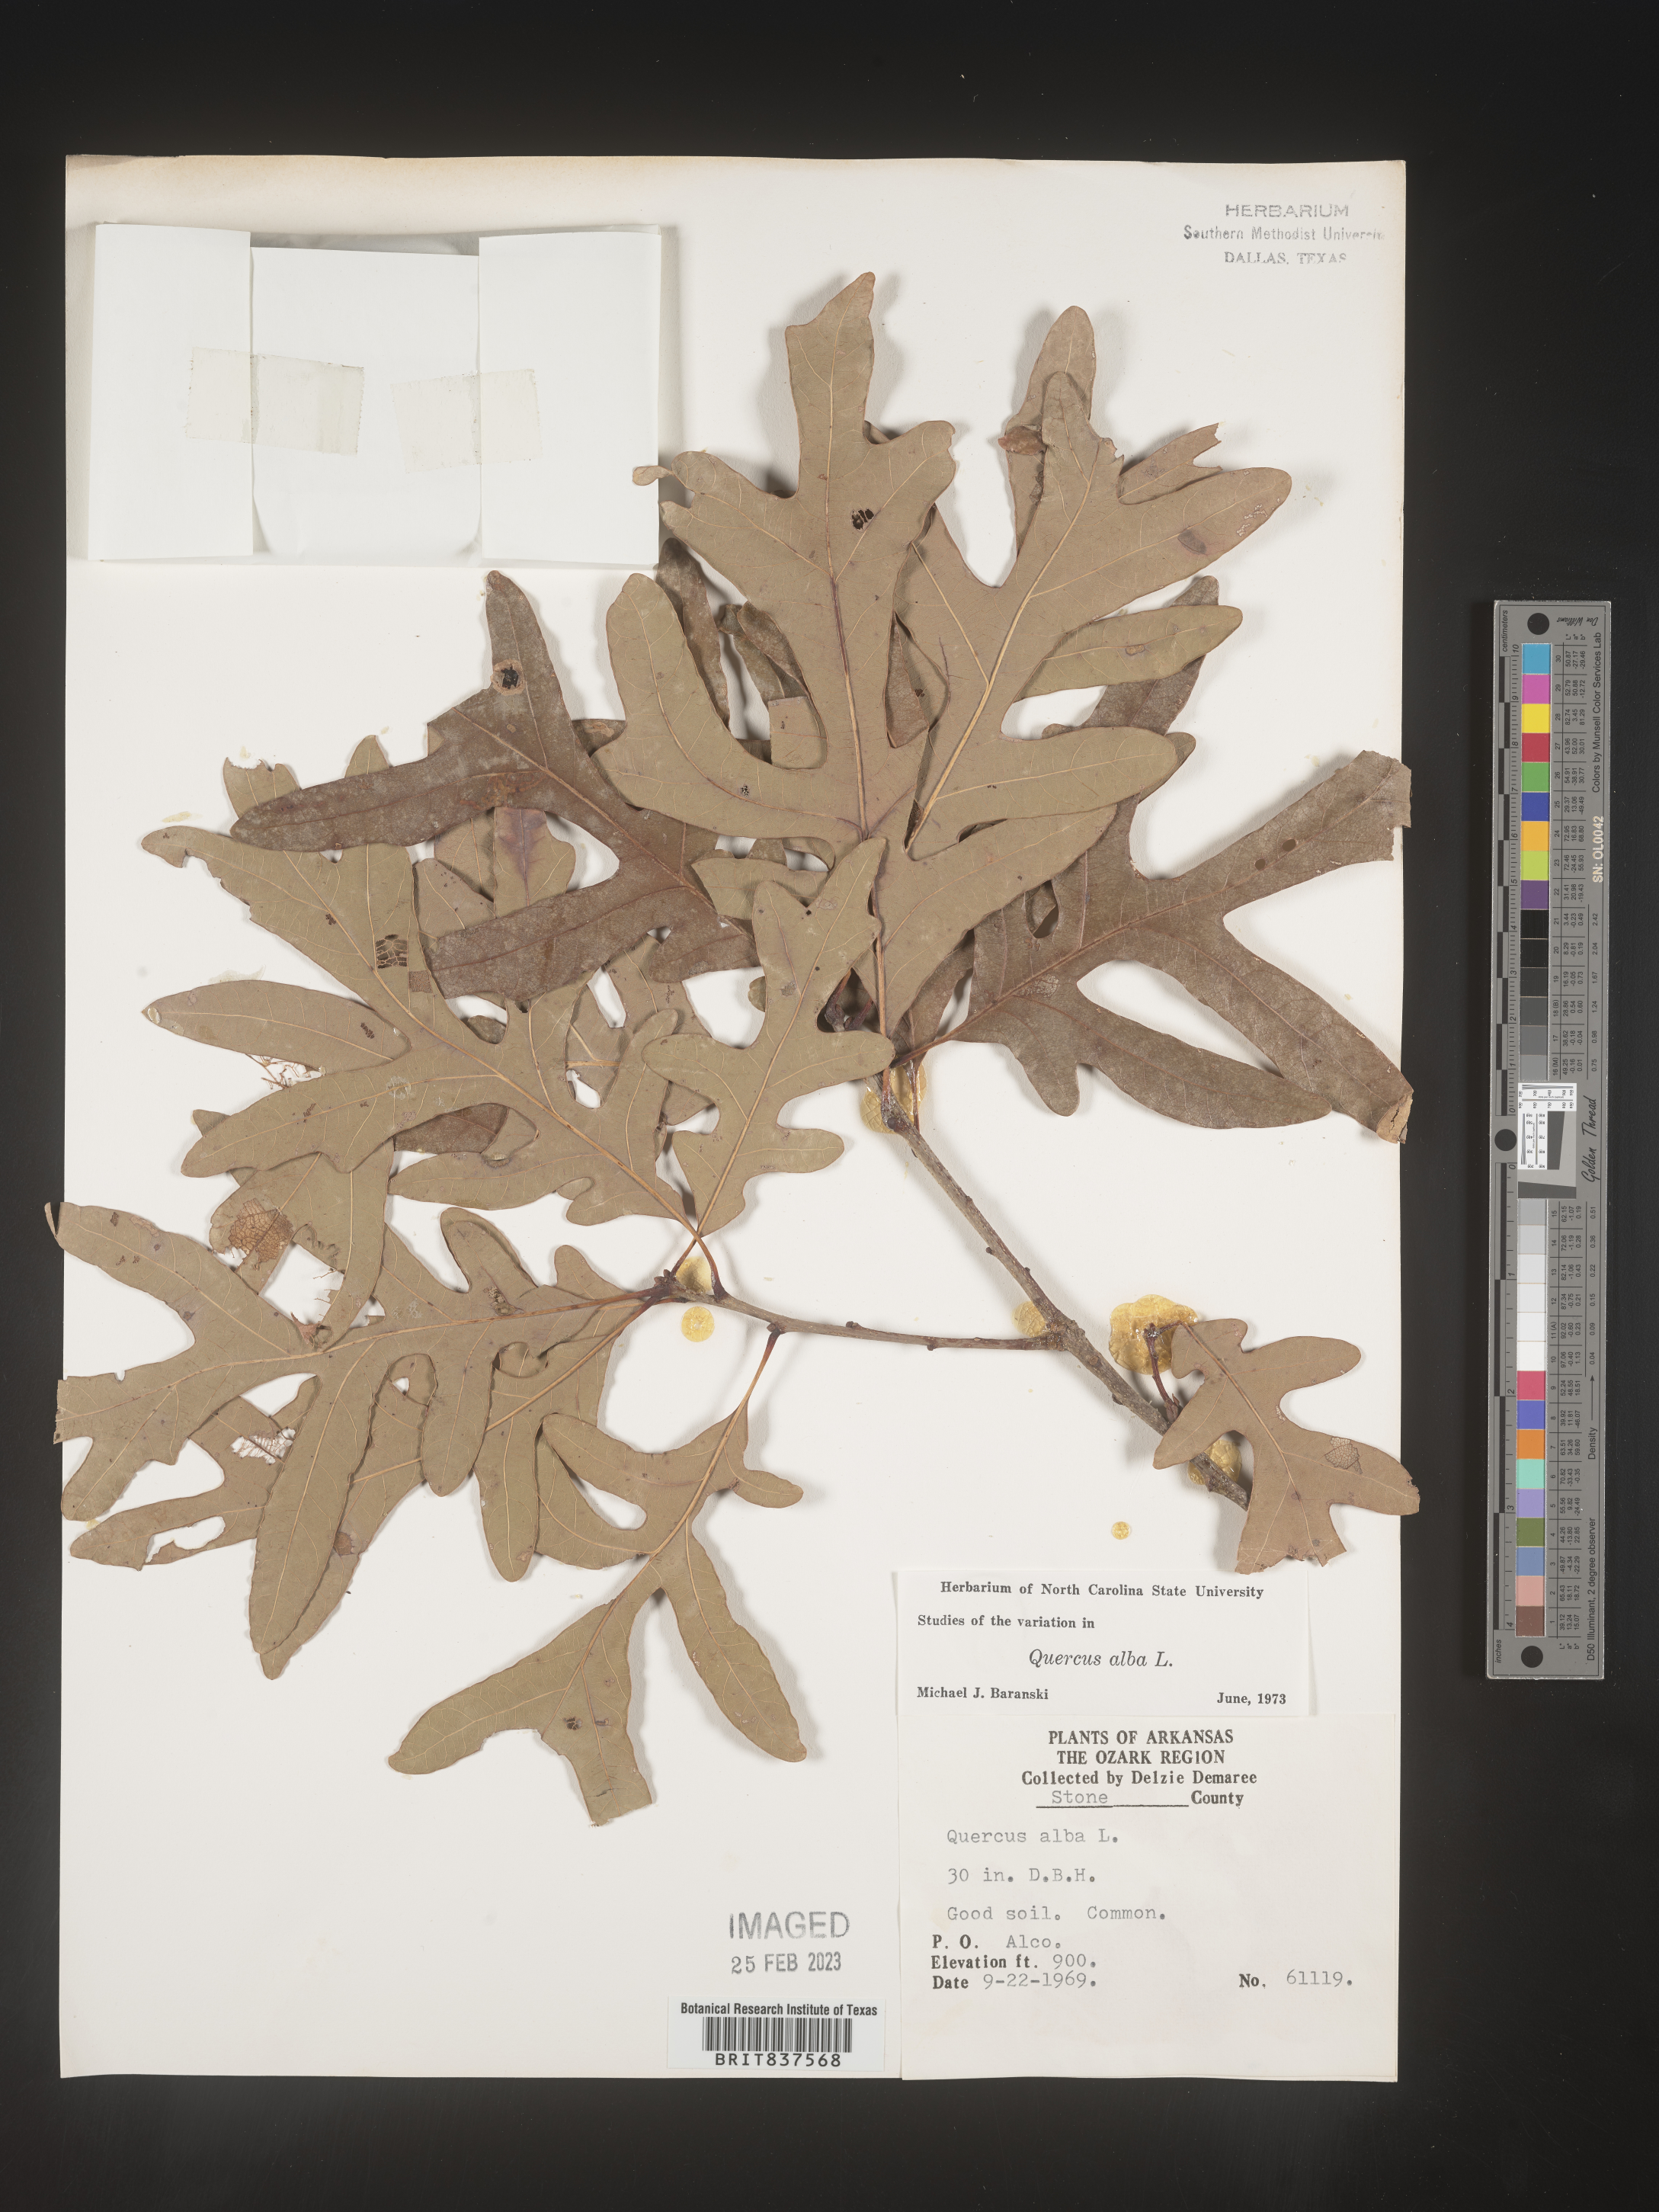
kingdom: Plantae
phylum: Tracheophyta
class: Magnoliopsida
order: Fagales
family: Fagaceae
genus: Quercus
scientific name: Quercus alba
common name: White oak
